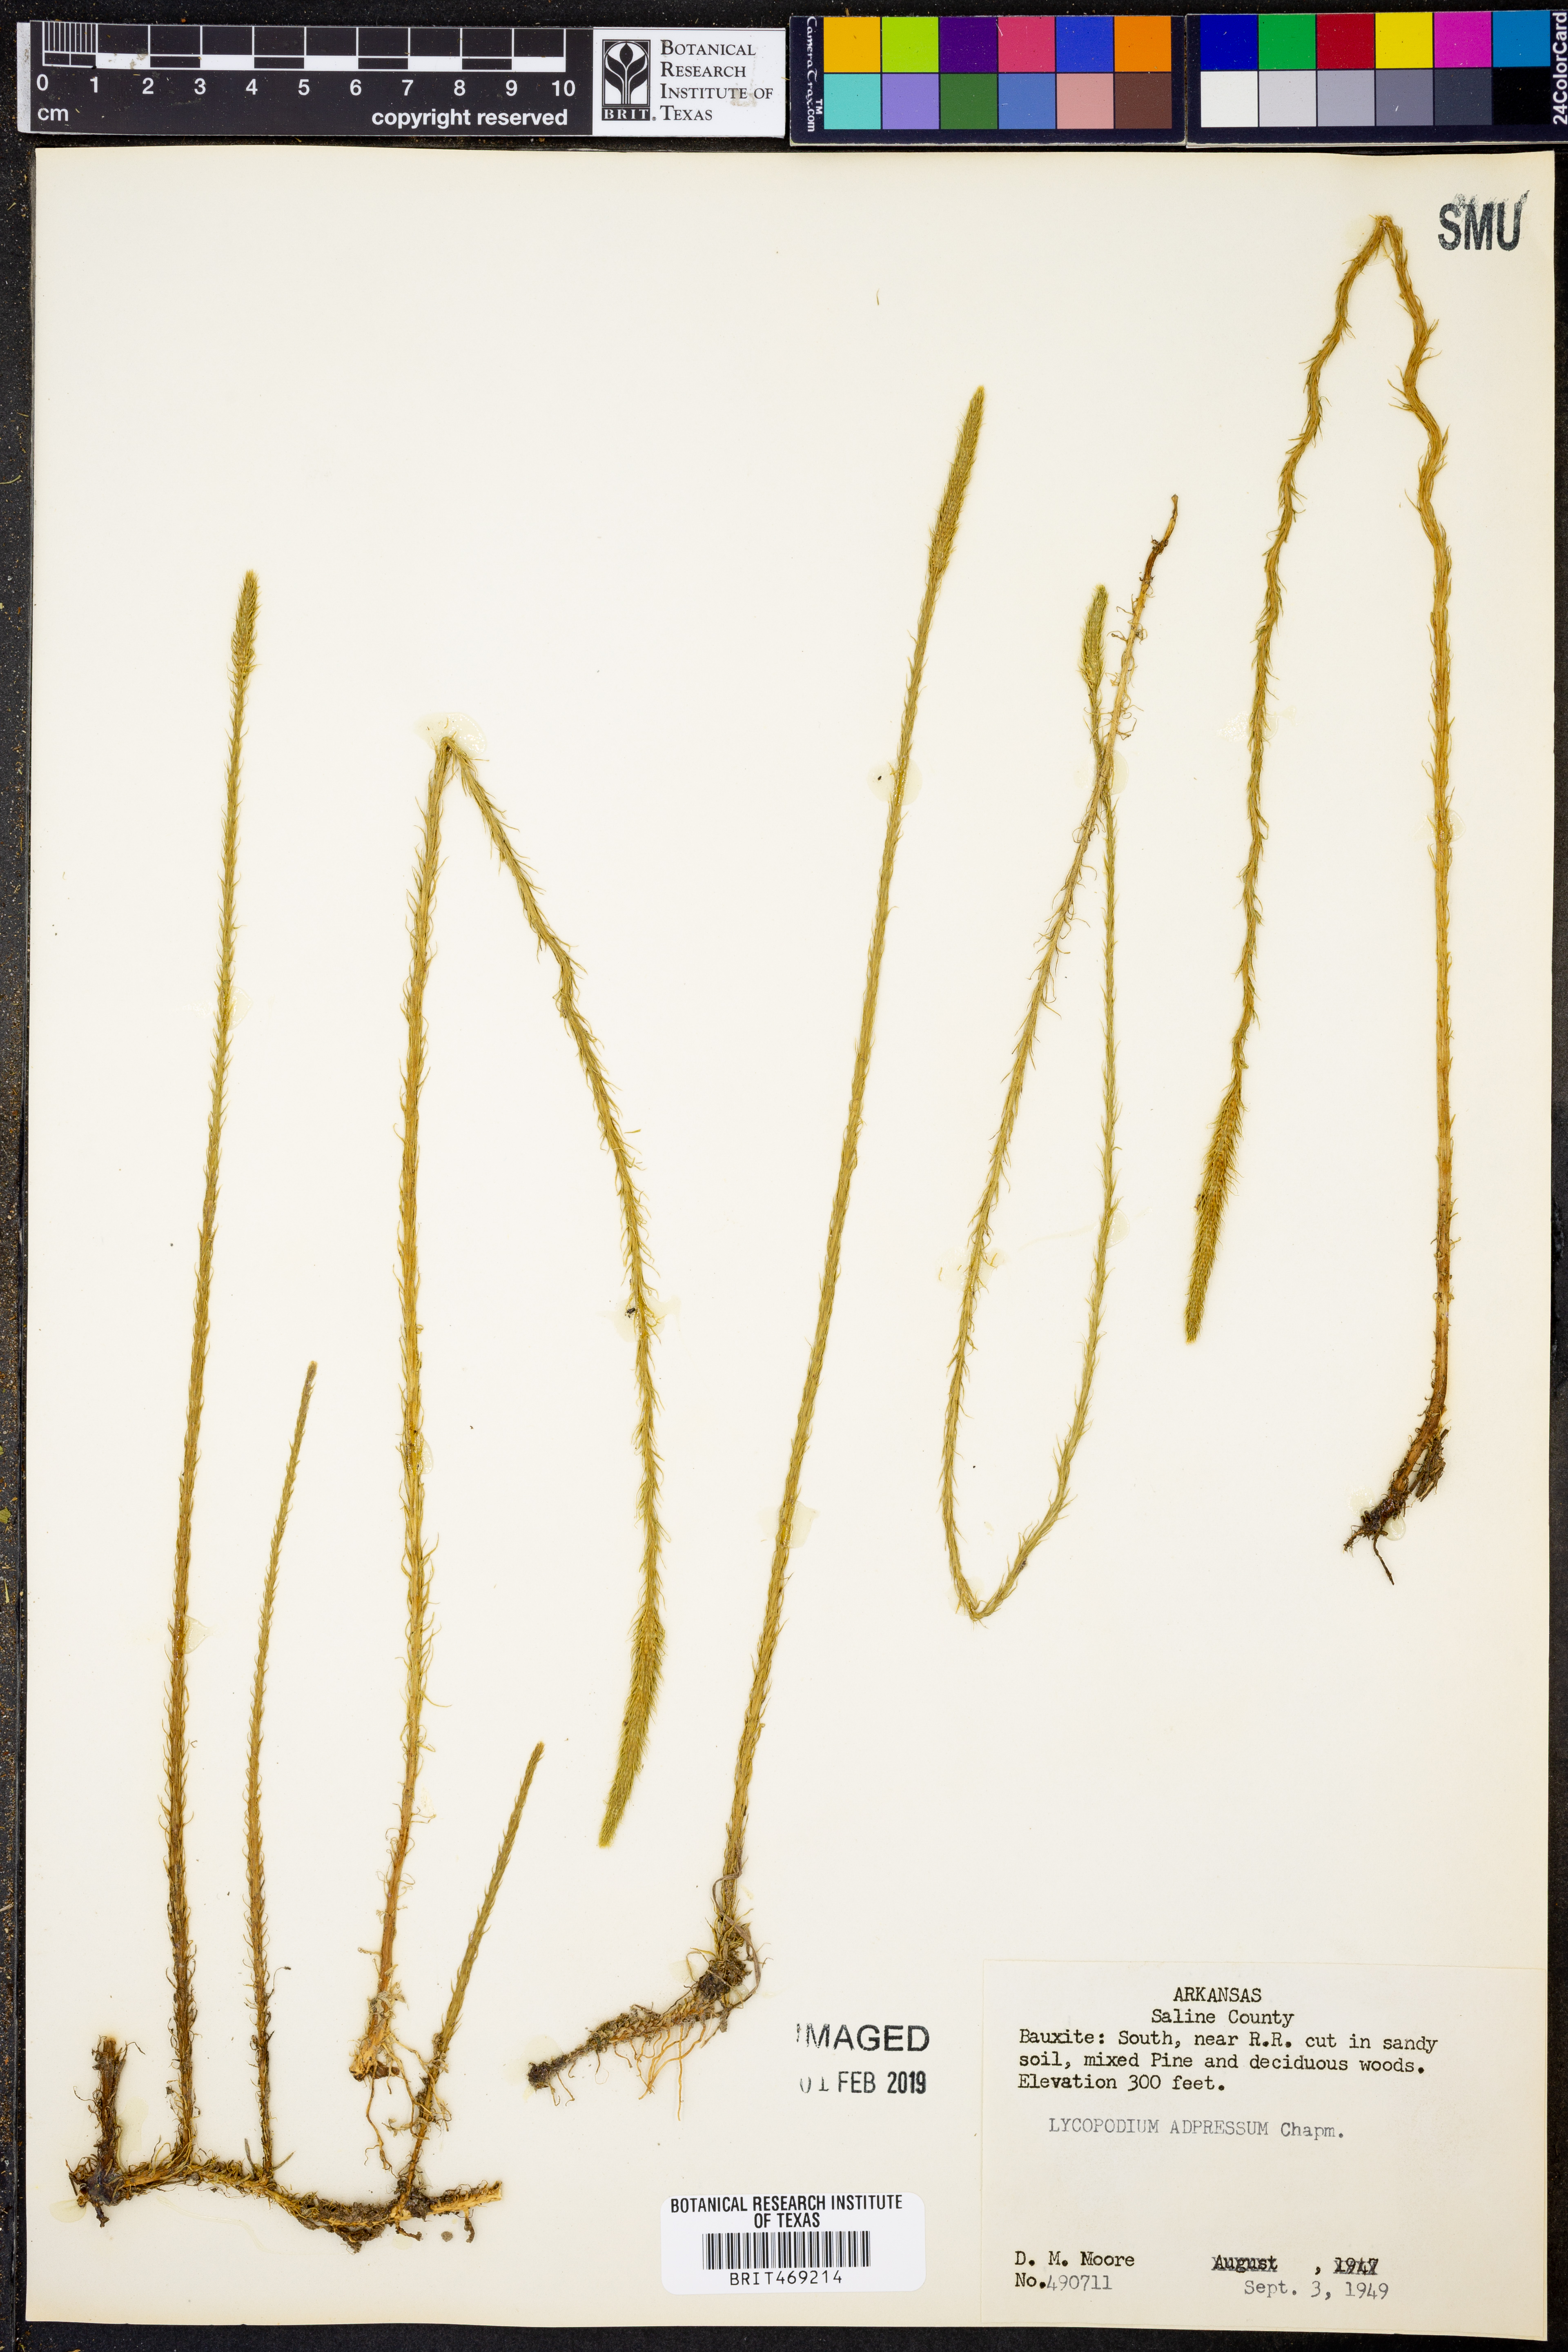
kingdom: Plantae
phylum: Tracheophyta
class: Lycopodiopsida
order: Lycopodiales
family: Lycopodiaceae
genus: Lycopodiella
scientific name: Lycopodiella appressa
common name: Appressed bog clubmoss
